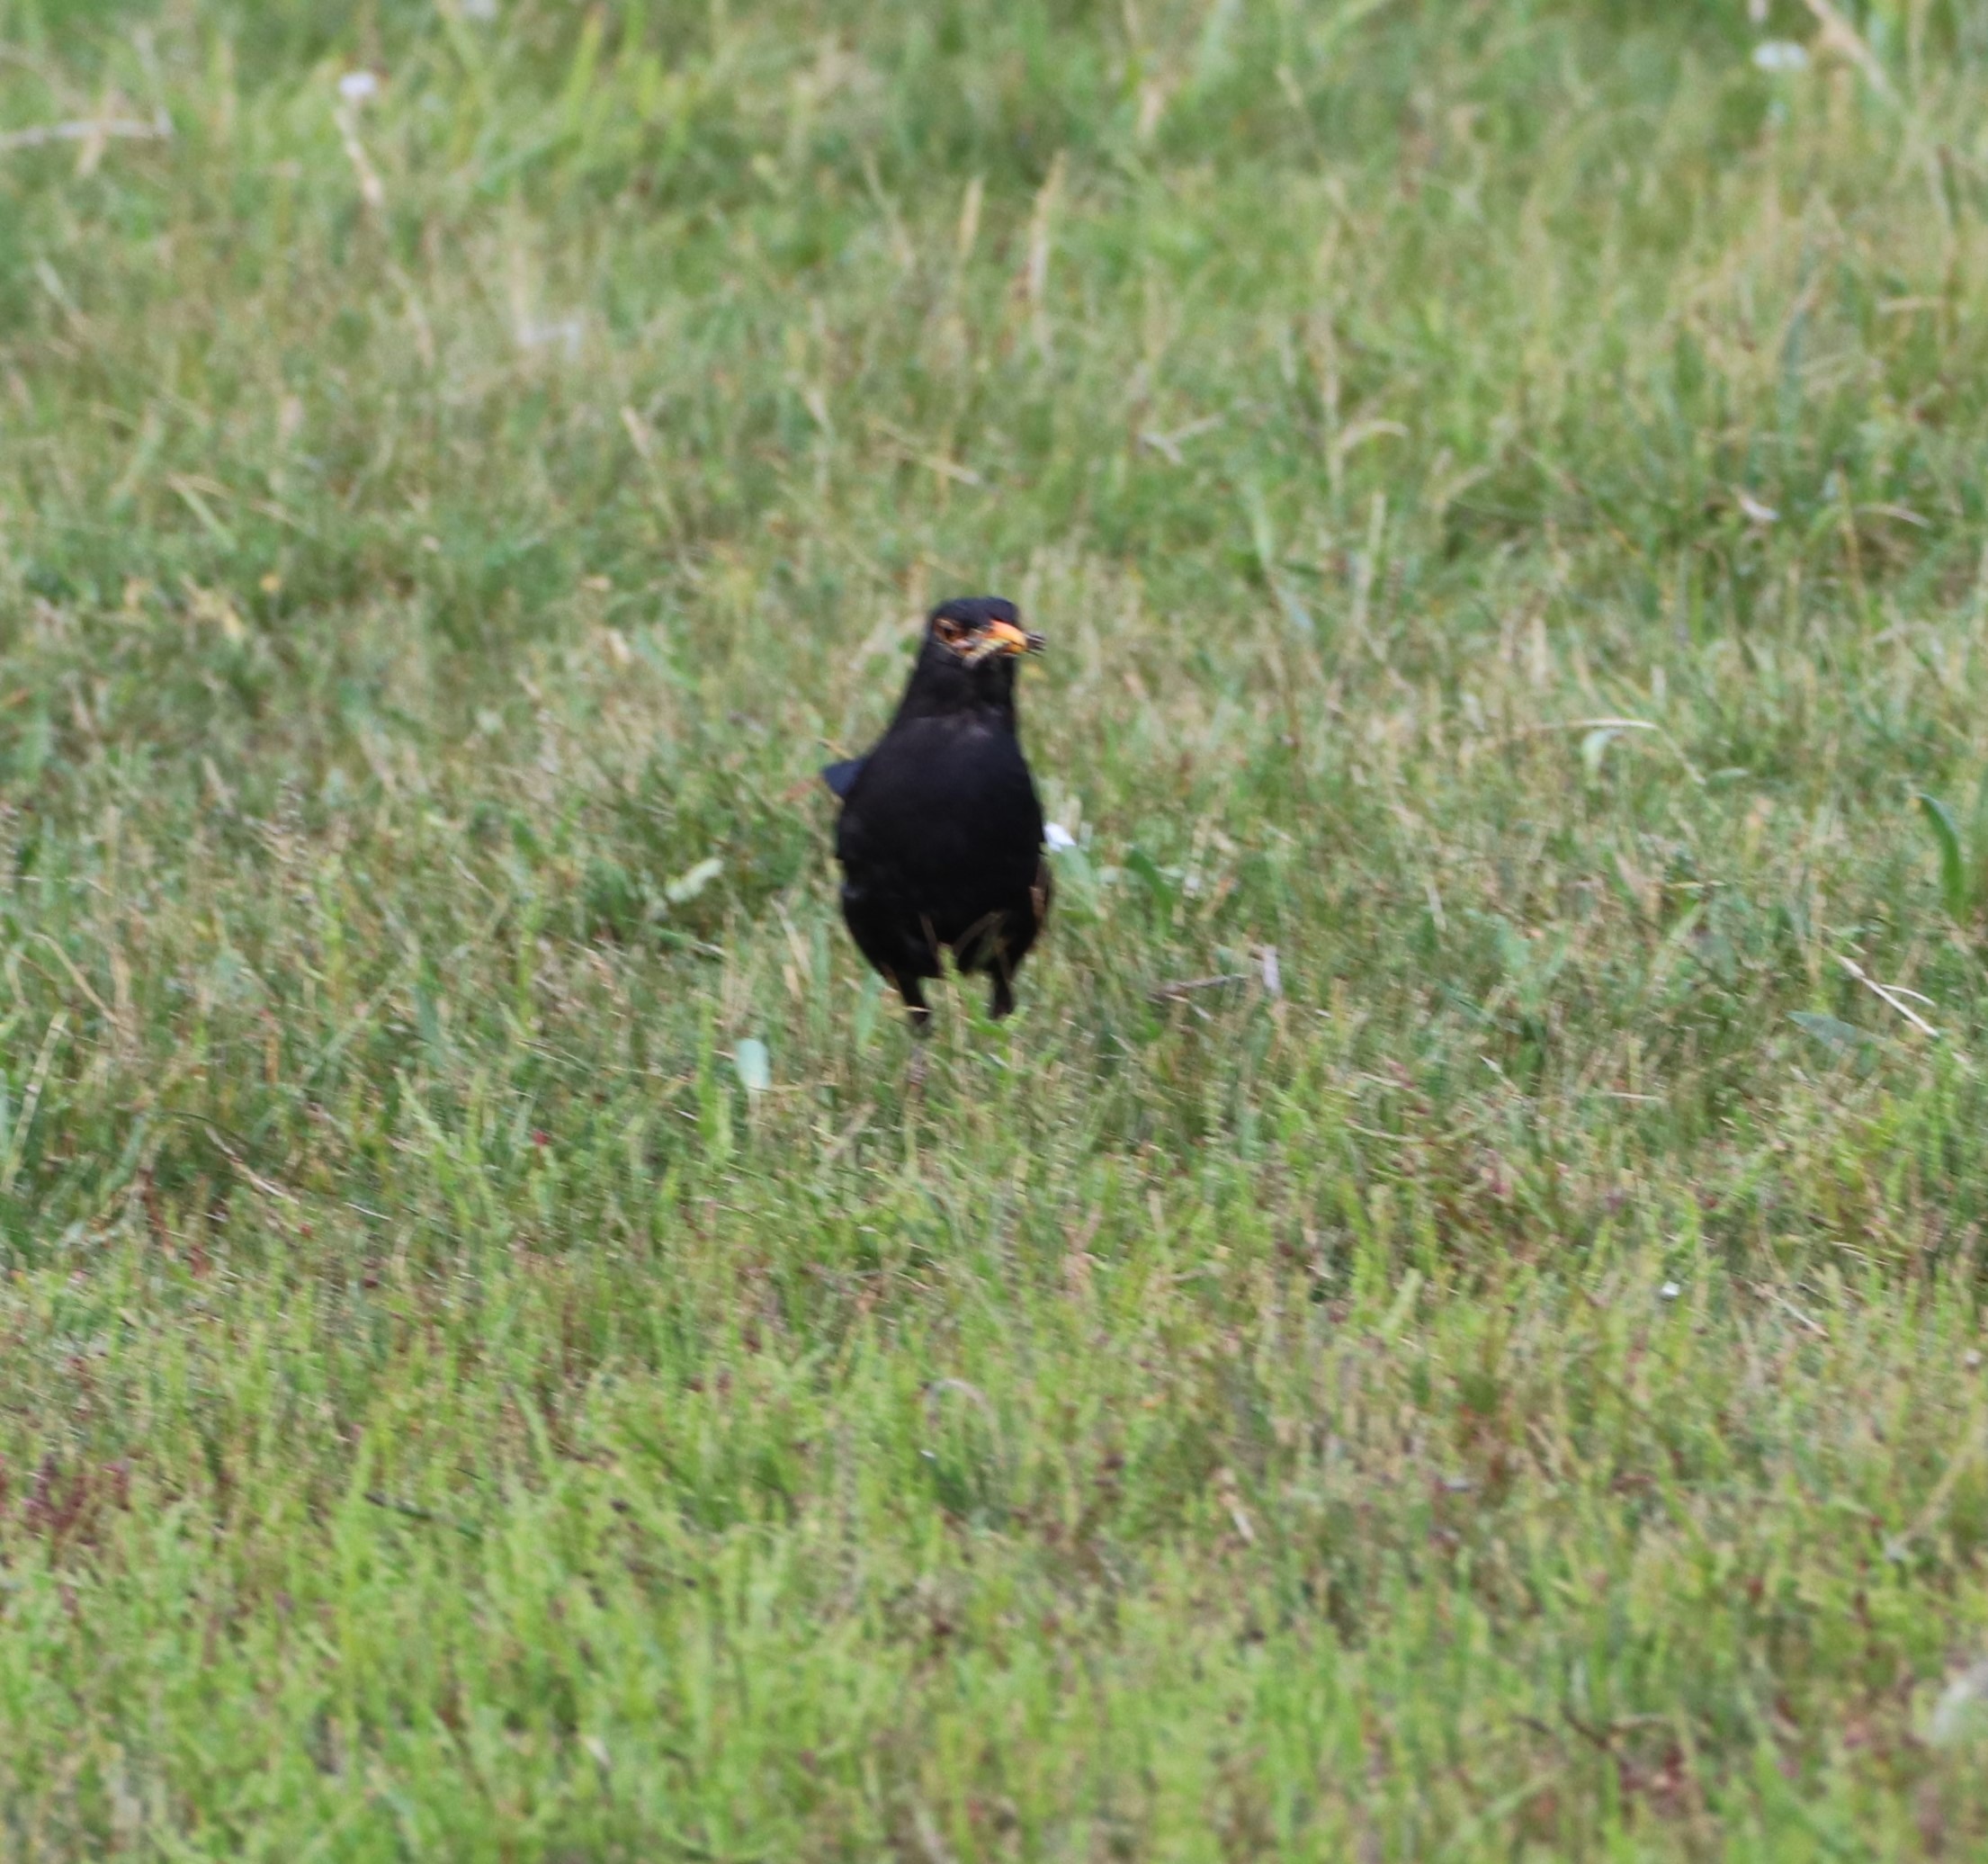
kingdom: Animalia
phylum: Chordata
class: Aves
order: Passeriformes
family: Turdidae
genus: Turdus
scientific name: Turdus merula
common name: Solsort
